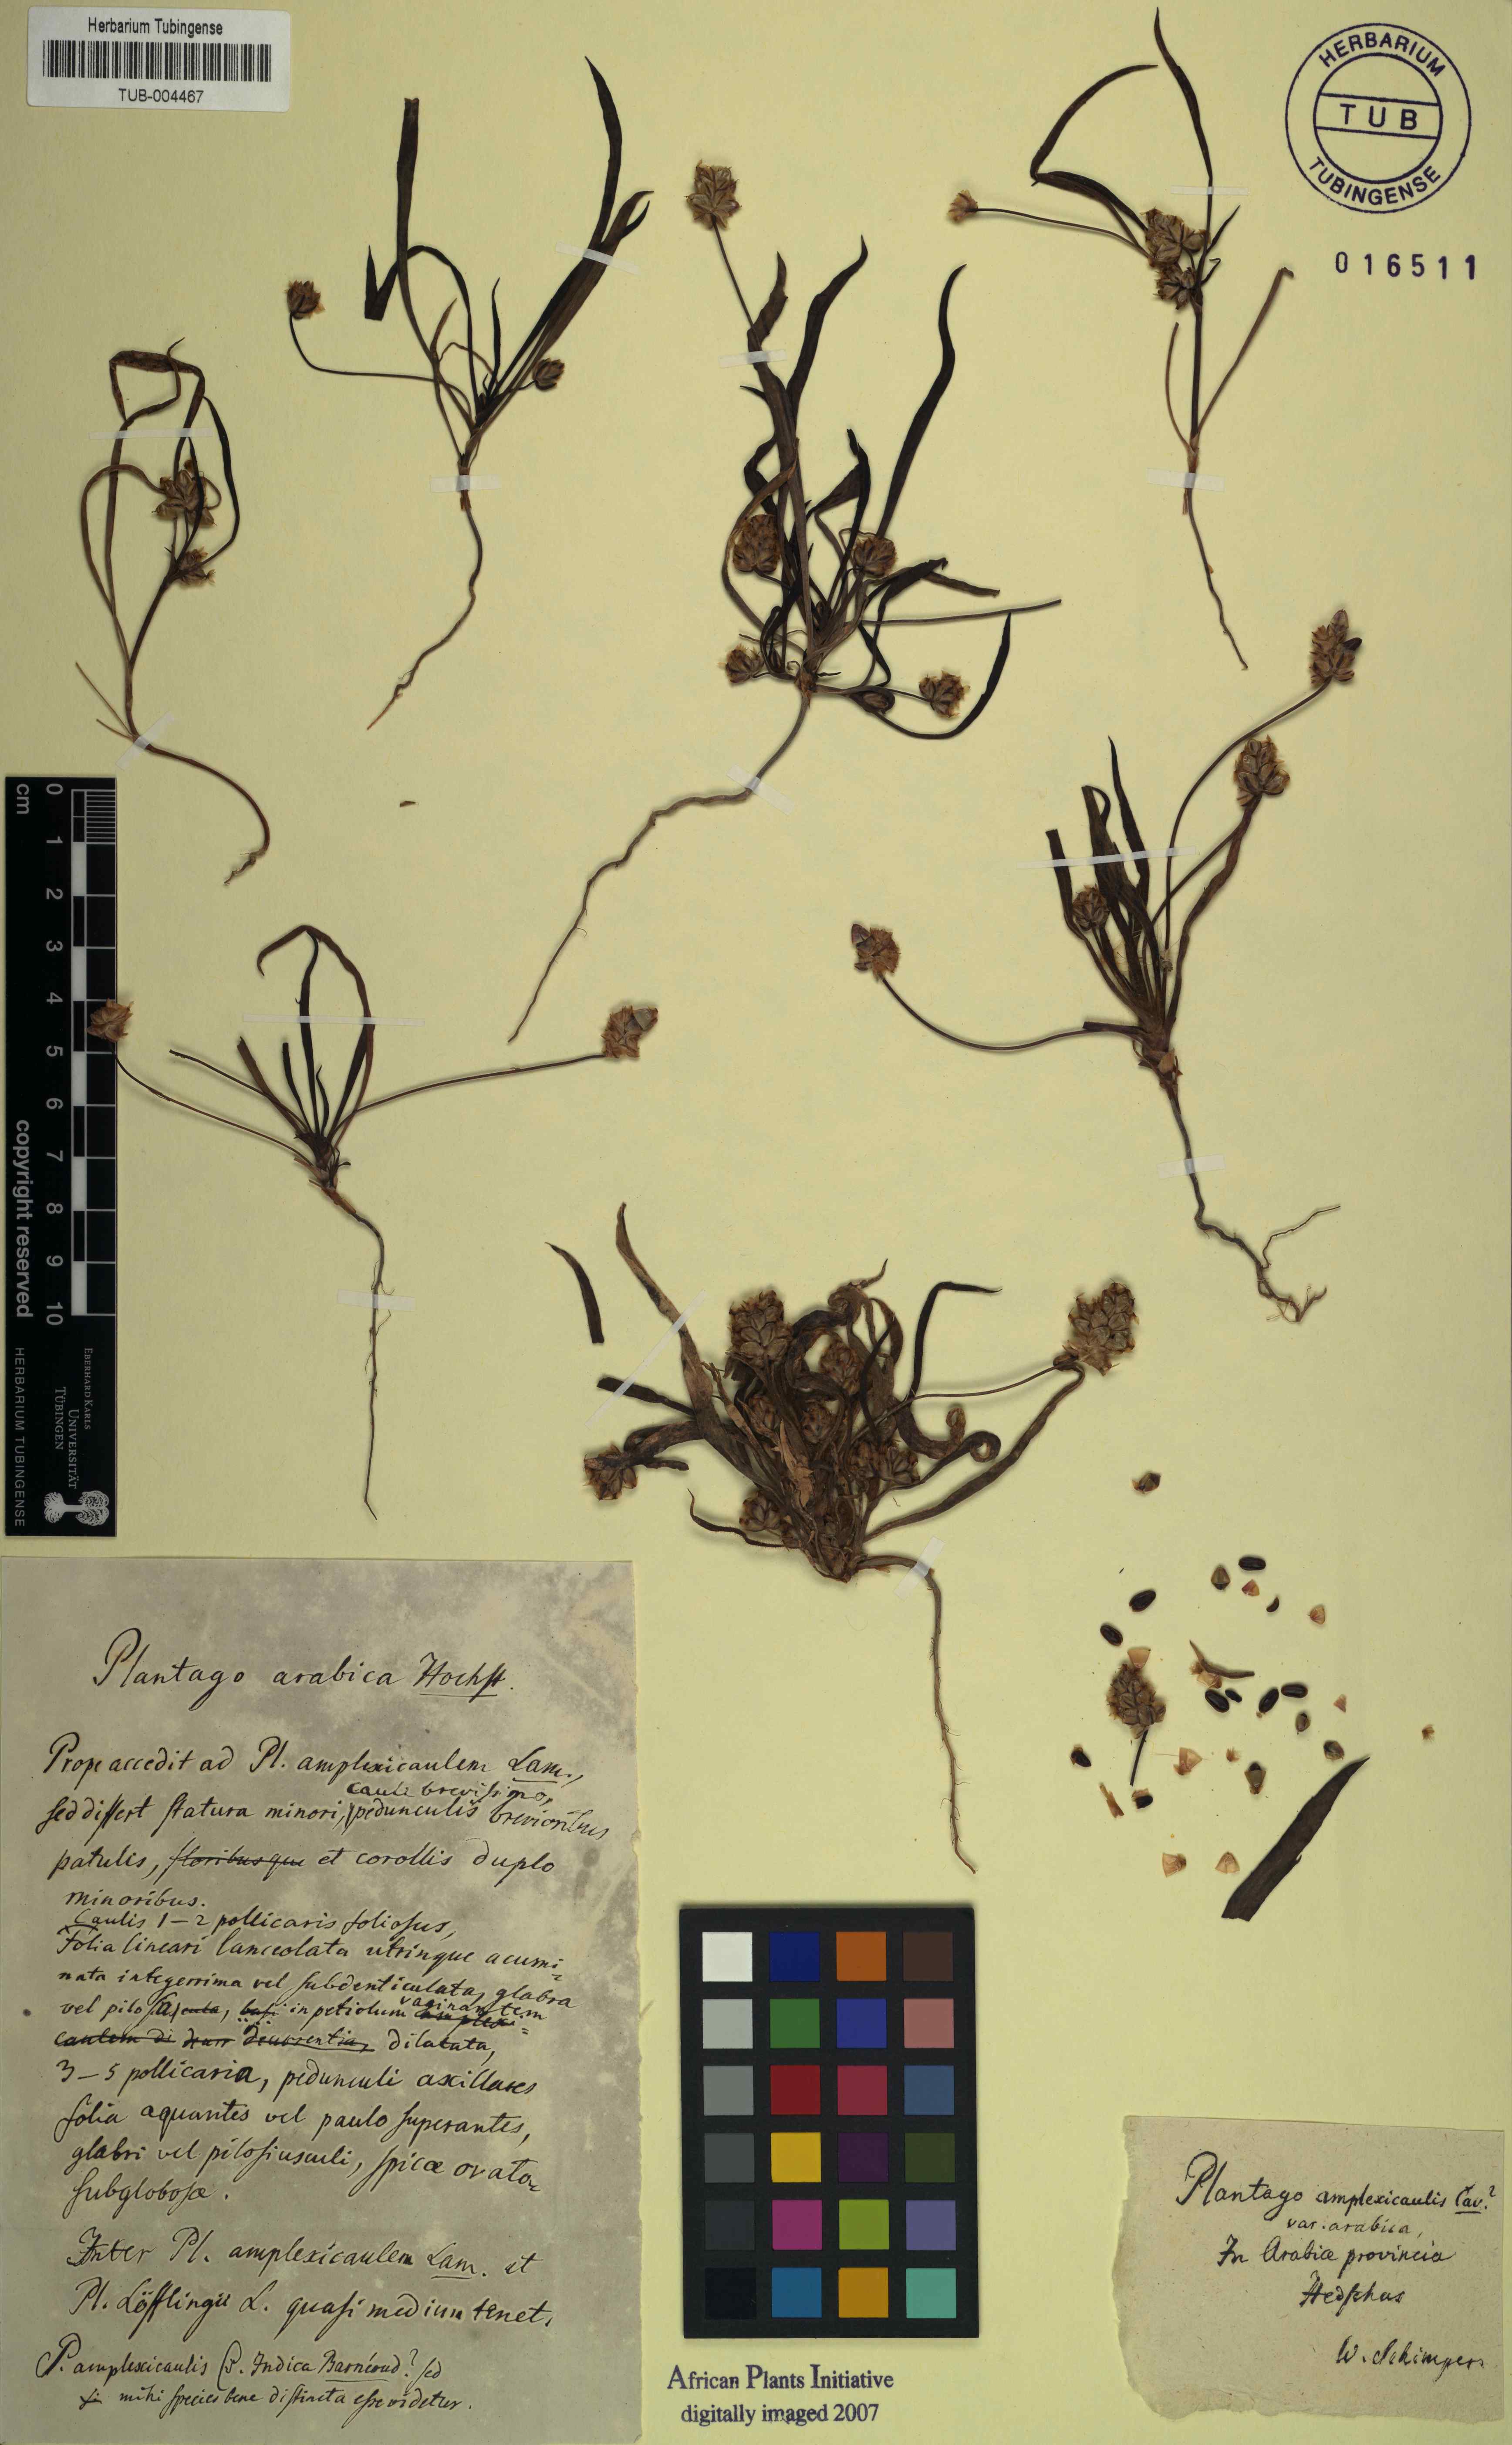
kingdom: Plantae
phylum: Tracheophyta
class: Magnoliopsida
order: Lamiales
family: Plantaginaceae
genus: Plantago
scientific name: Plantago sinaica
